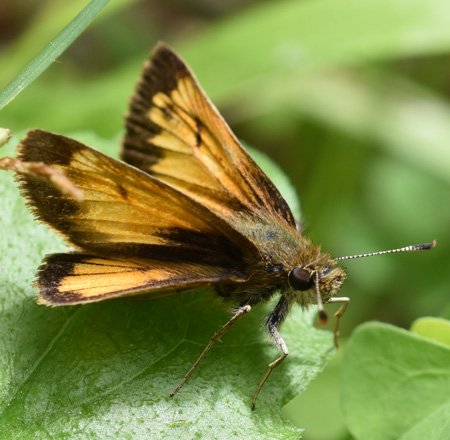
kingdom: Animalia
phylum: Arthropoda
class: Insecta
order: Lepidoptera
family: Hesperiidae
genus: Lon
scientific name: Lon hobomok
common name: Hobomok Skipper
